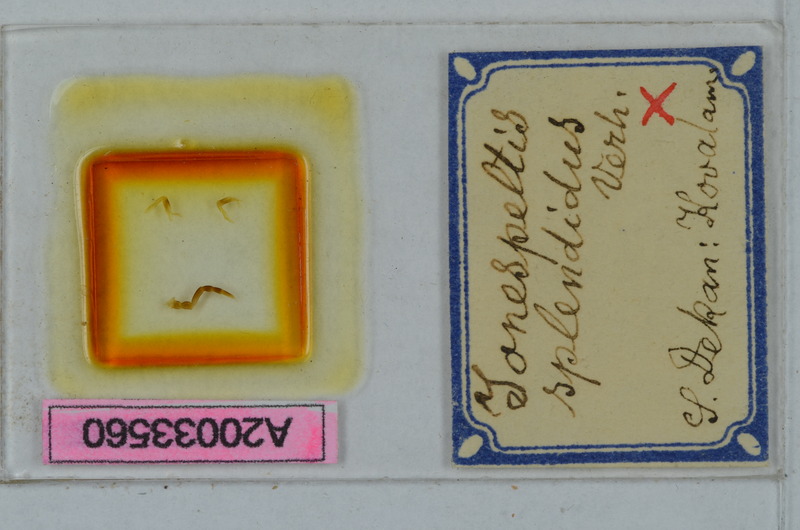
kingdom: Animalia
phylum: Arthropoda
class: Diplopoda
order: Polydesmida
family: Paradoxosomatidae
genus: Anoplodesmus
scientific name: Anoplodesmus splendidus
